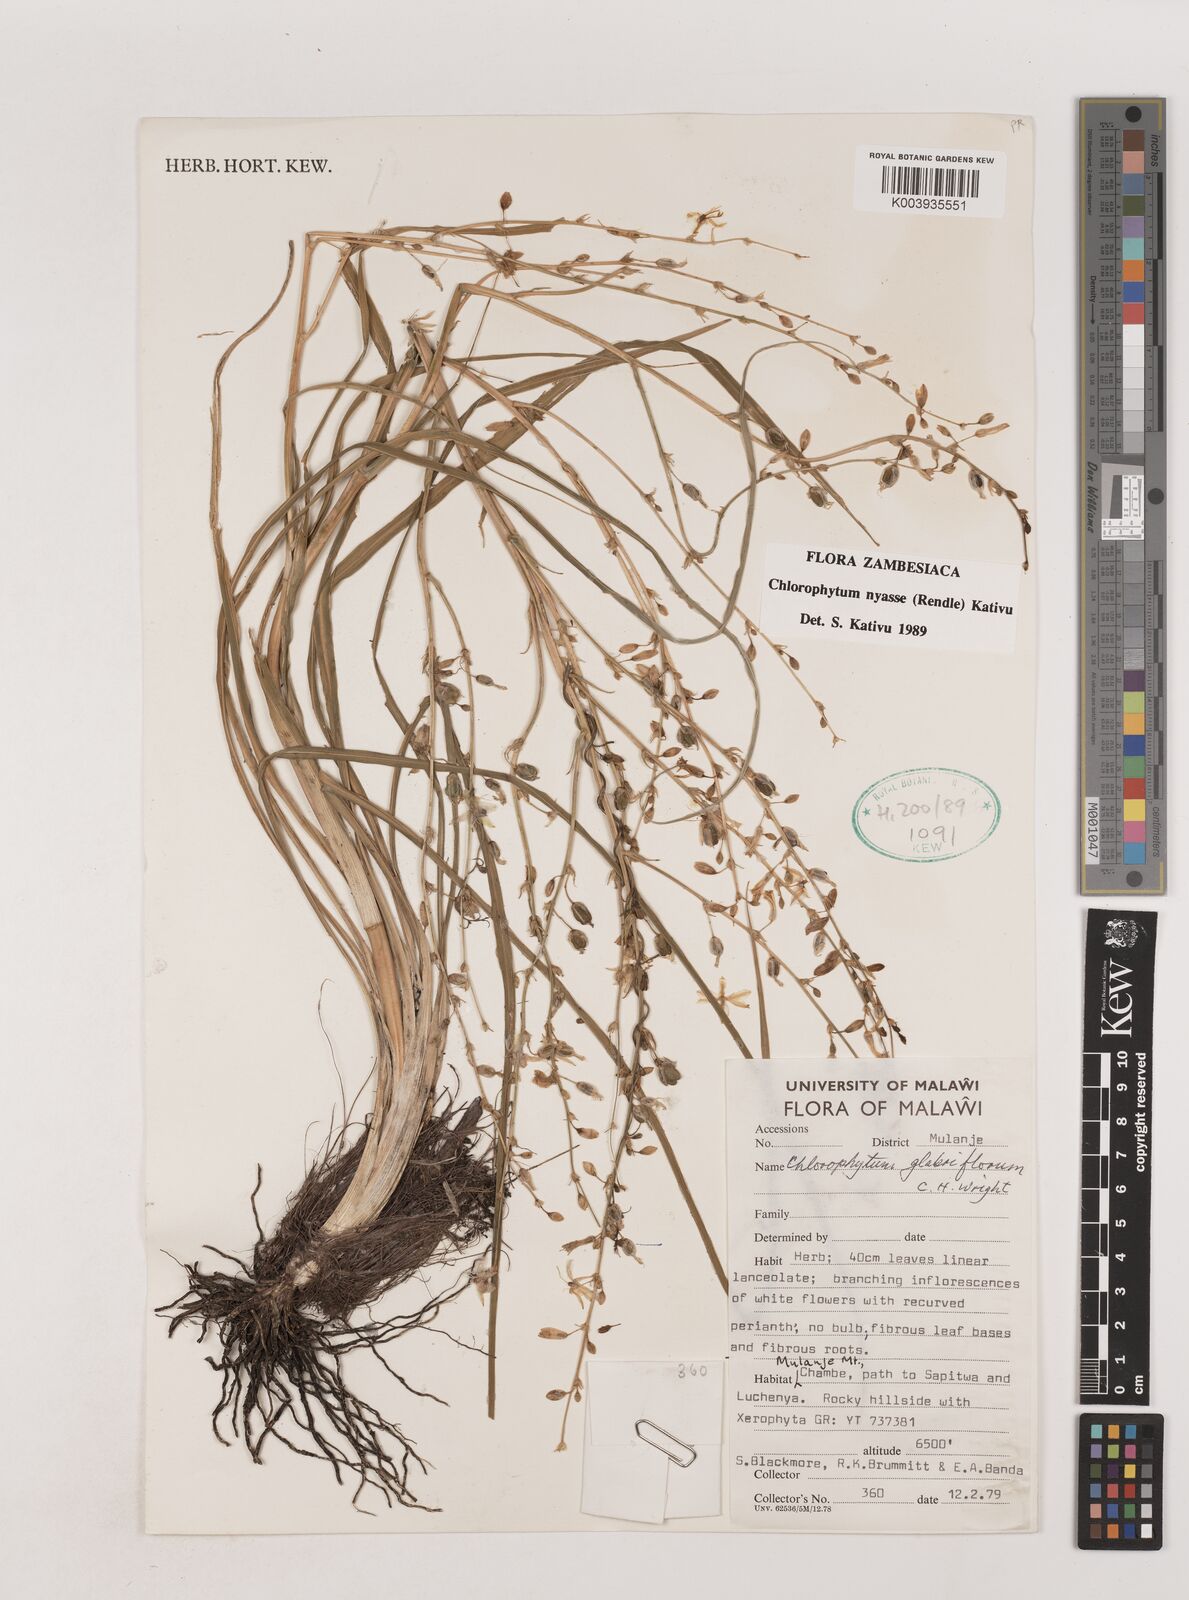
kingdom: Plantae
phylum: Tracheophyta
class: Liliopsida
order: Asparagales
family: Asparagaceae
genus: Chlorophytum
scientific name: Chlorophytum nyasae
